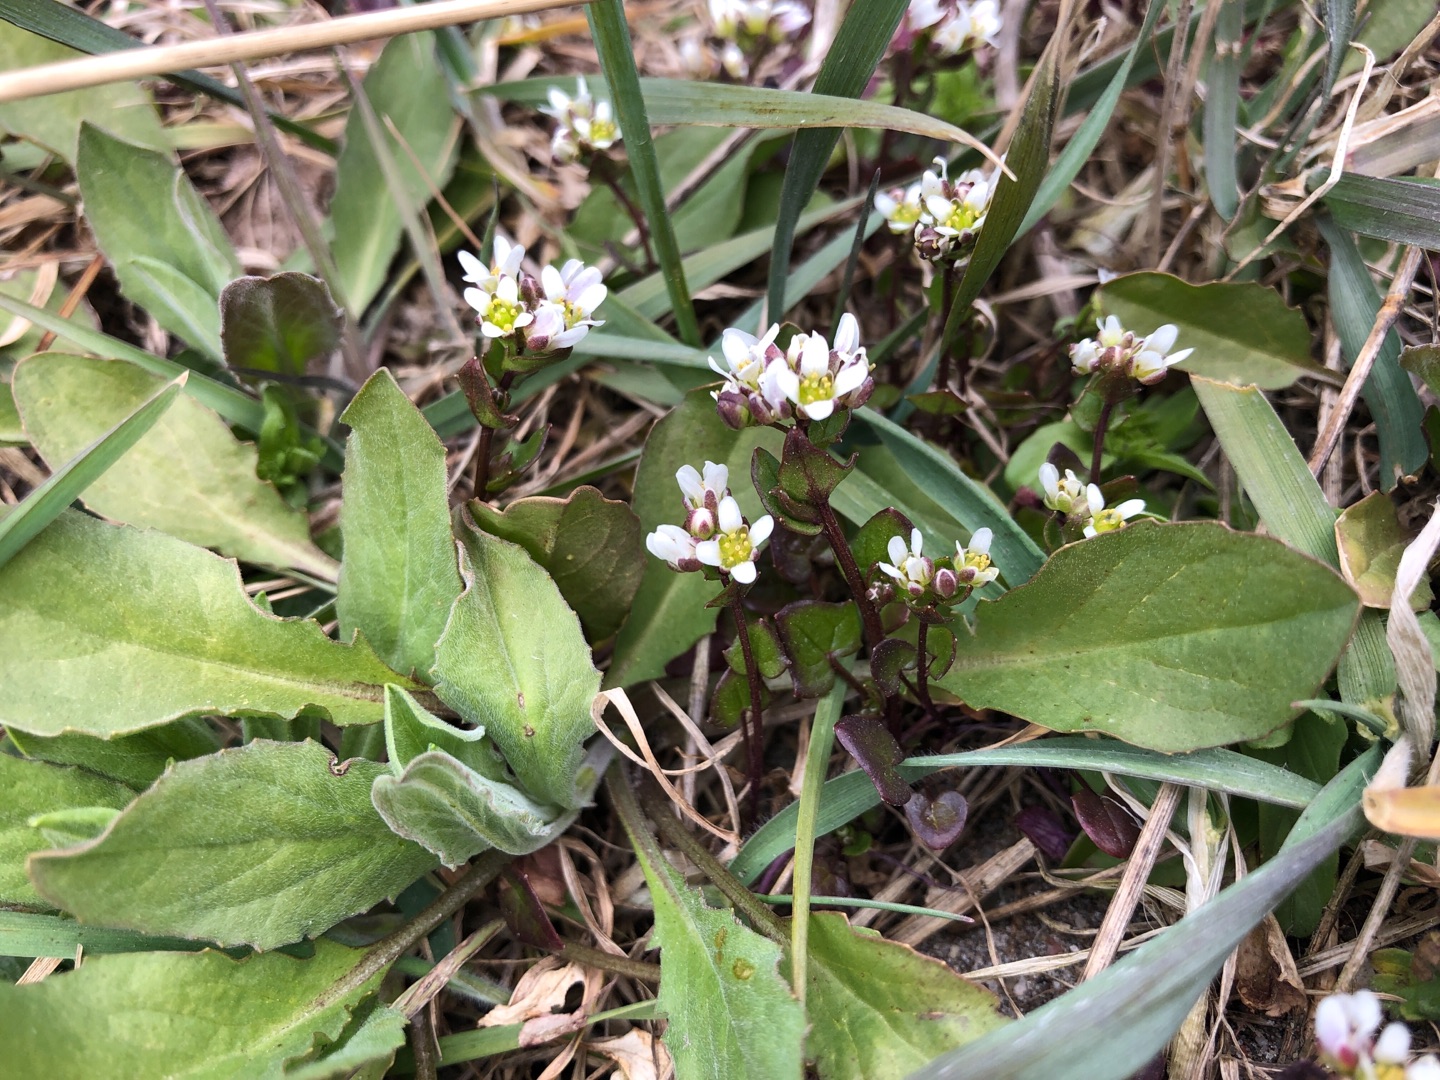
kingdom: Plantae
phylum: Tracheophyta
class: Magnoliopsida
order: Brassicales
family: Brassicaceae
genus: Cochlearia
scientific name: Cochlearia danica
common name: Dansk kokleare
